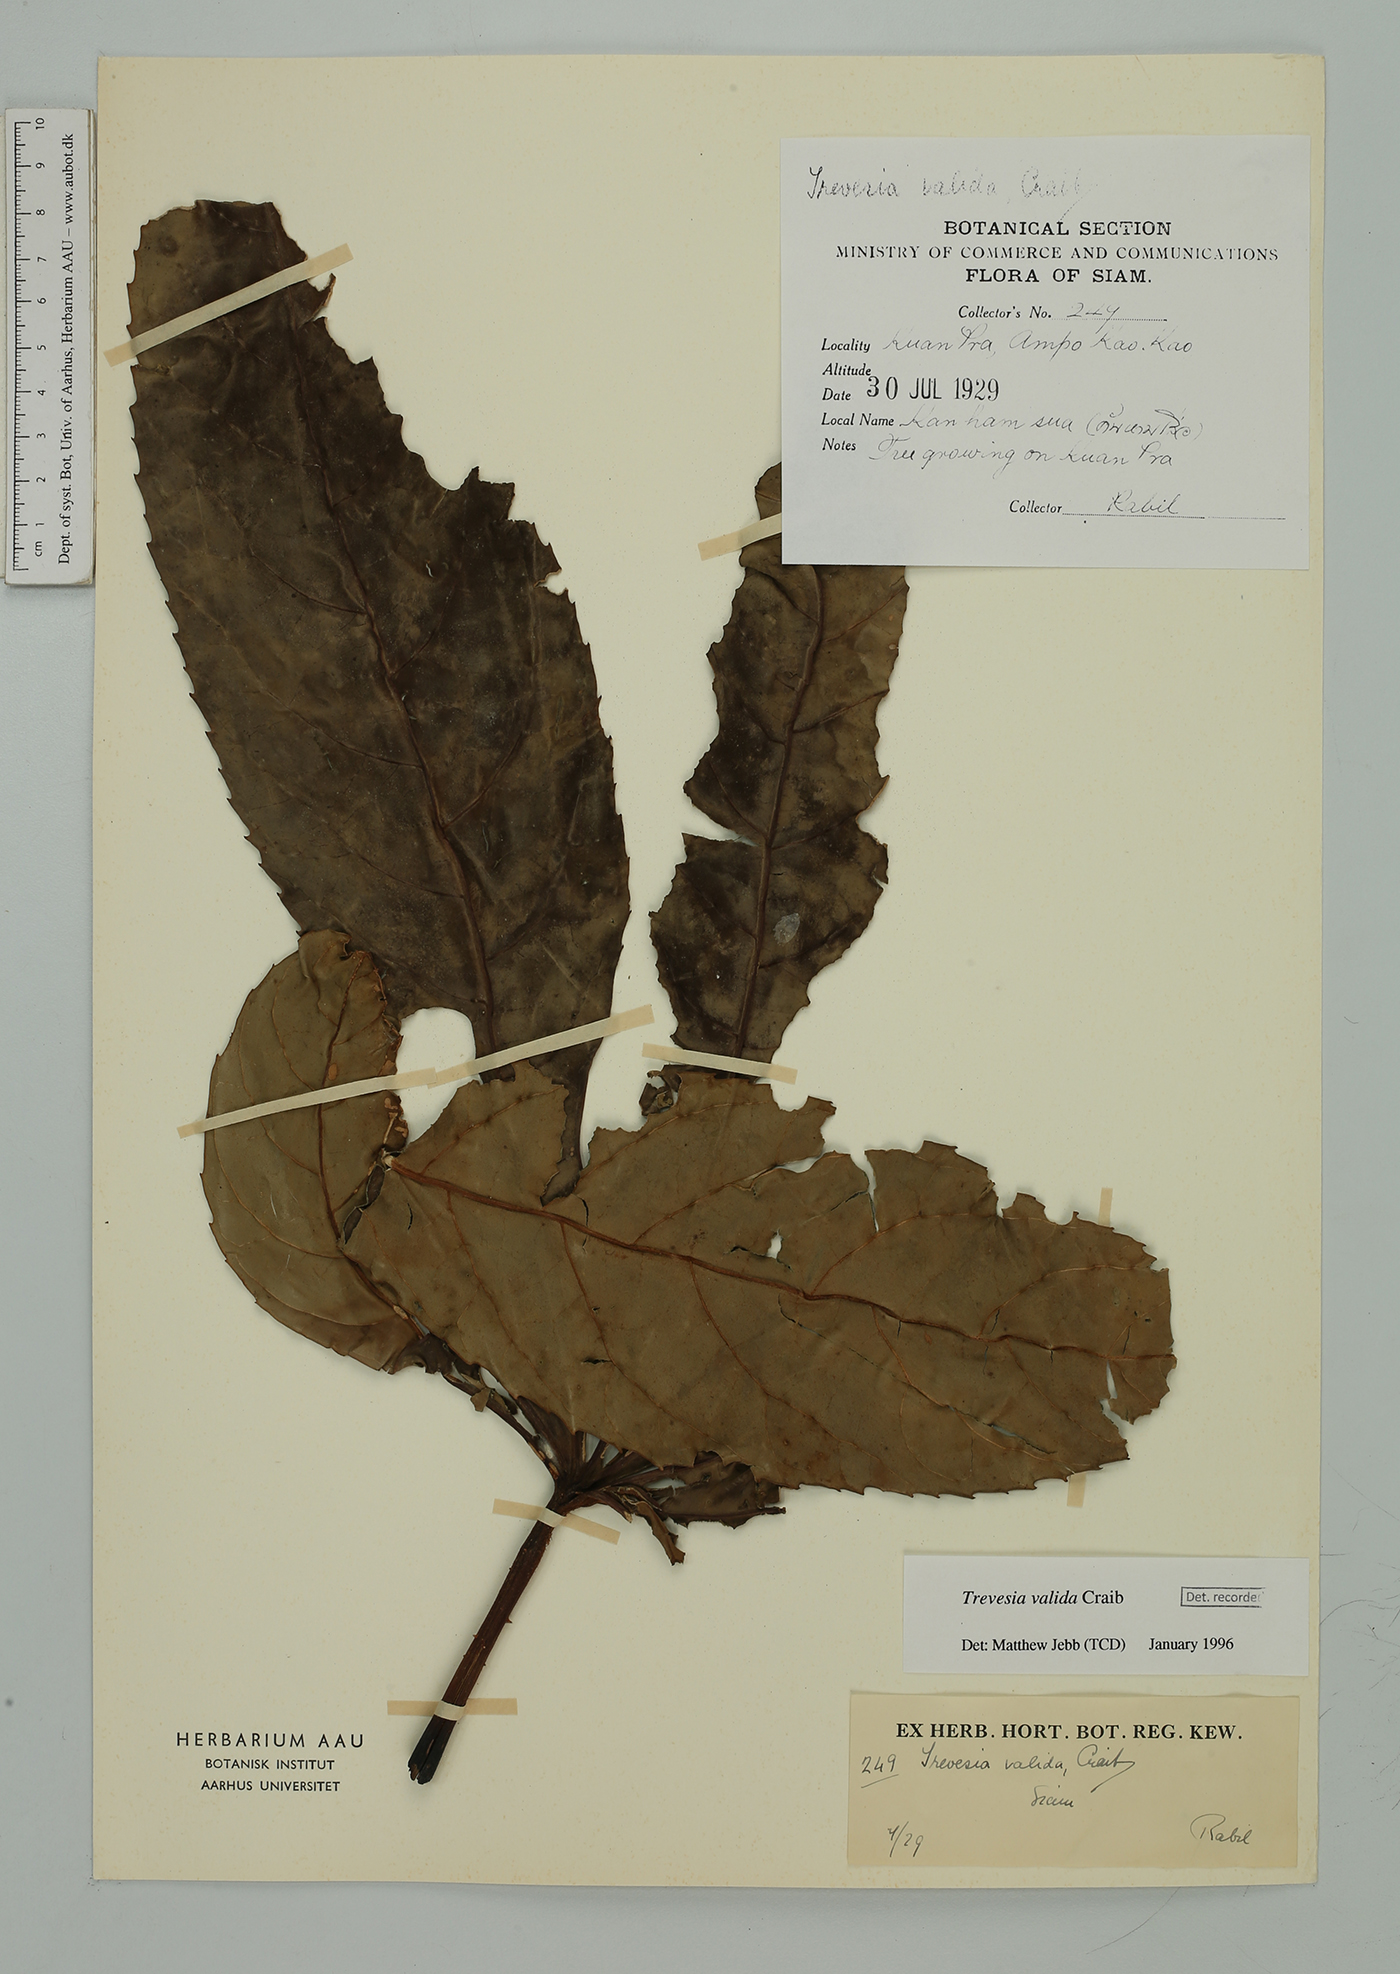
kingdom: Plantae
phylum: Tracheophyta
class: Magnoliopsida
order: Apiales
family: Araliaceae
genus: Trevesia
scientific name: Trevesia valida
